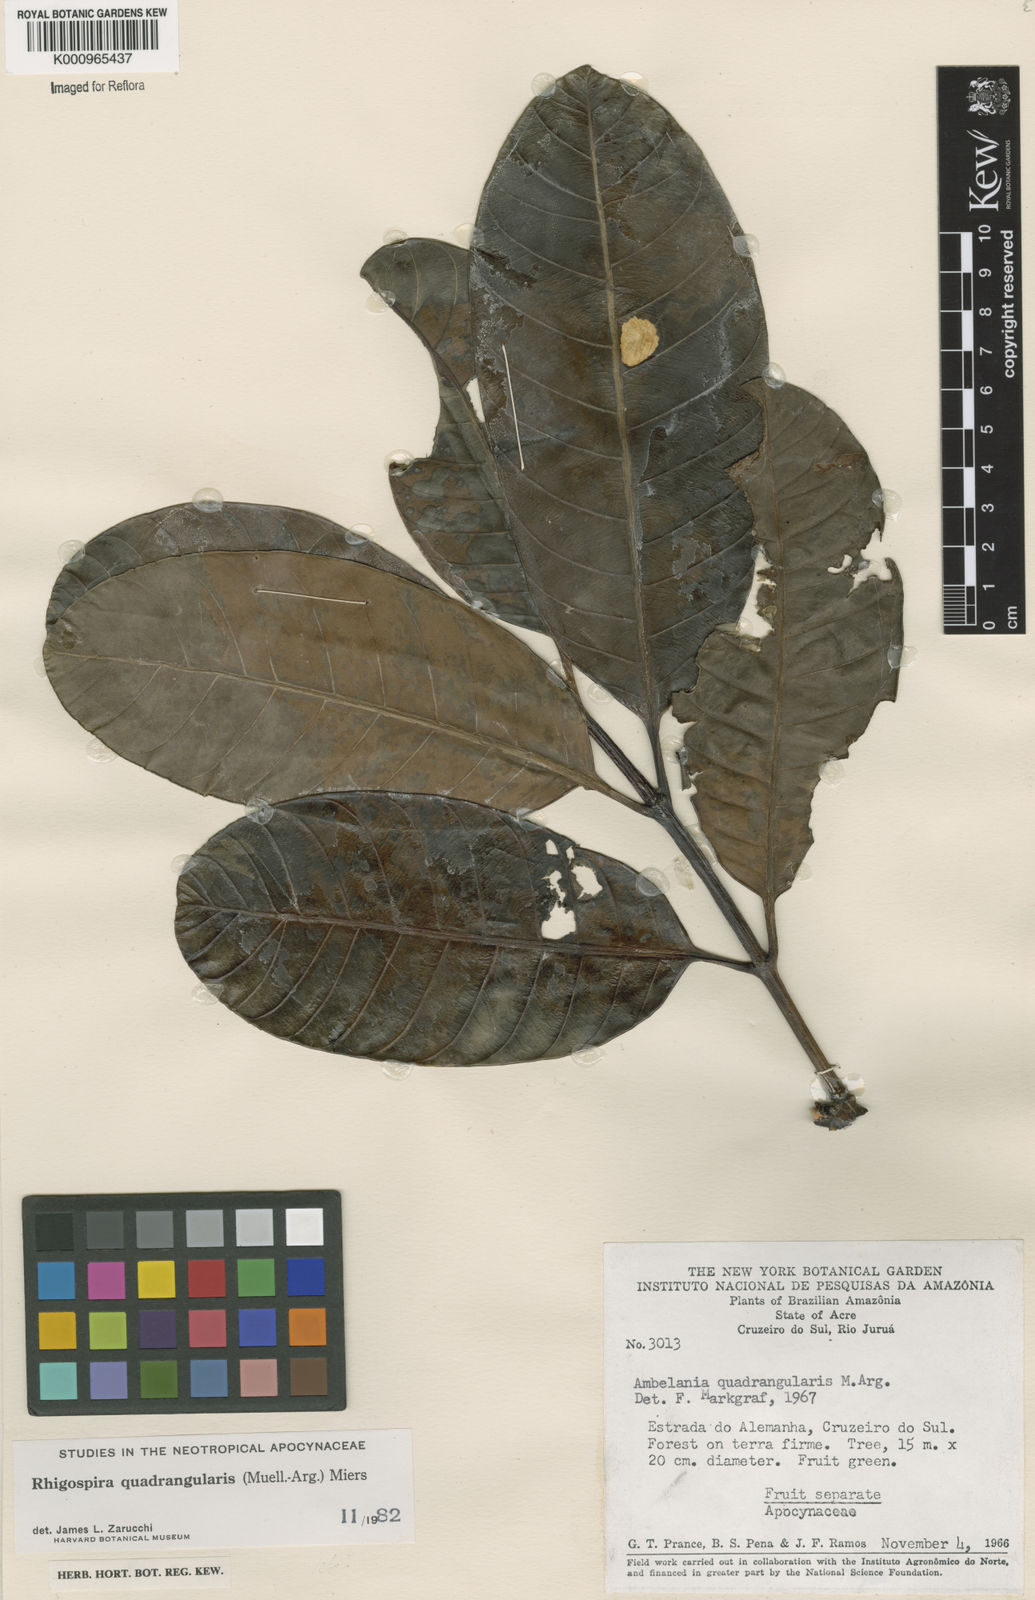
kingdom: Plantae
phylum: Tracheophyta
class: Magnoliopsida
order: Gentianales
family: Apocynaceae
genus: Rhigospira
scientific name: Rhigospira quadrangularis
